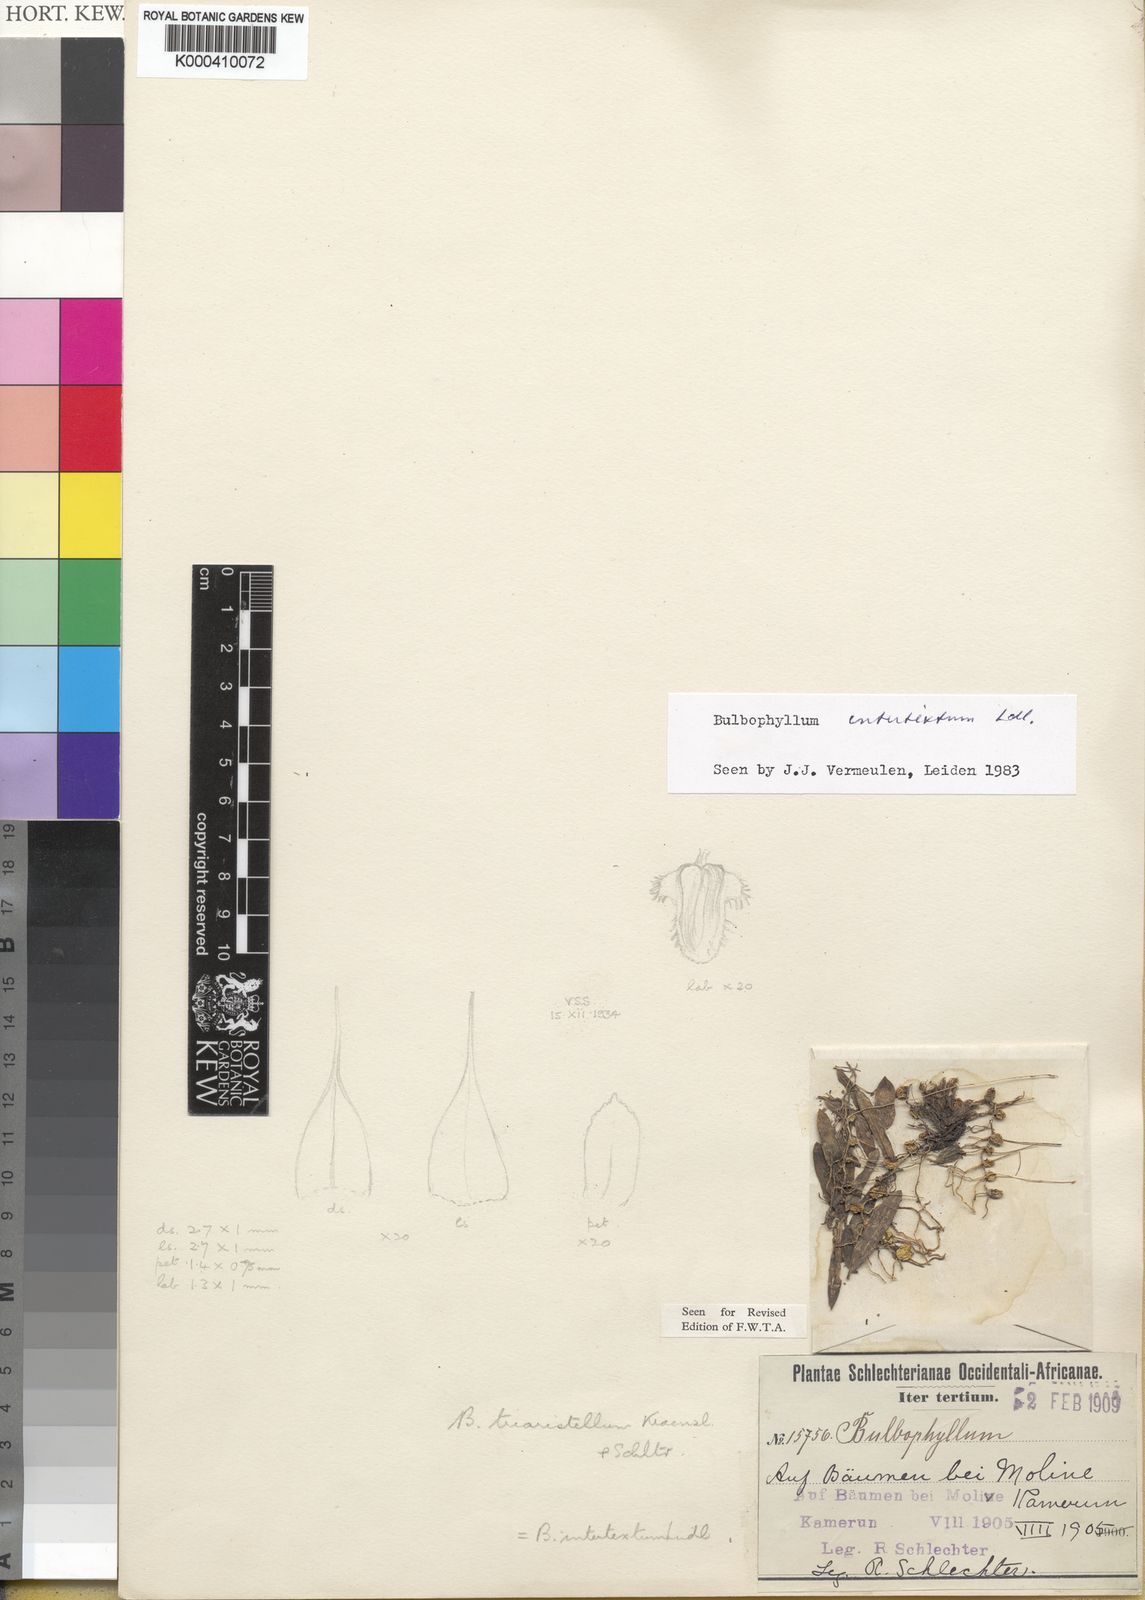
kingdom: Plantae
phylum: Tracheophyta
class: Liliopsida
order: Asparagales
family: Orchidaceae
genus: Bulbophyllum
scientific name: Bulbophyllum intertextum
